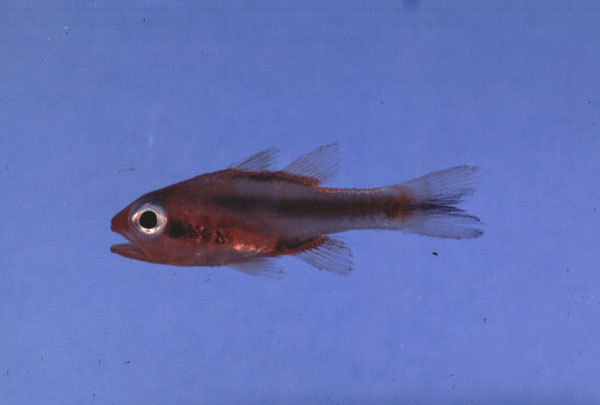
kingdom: Animalia
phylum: Chordata
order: Perciformes
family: Apogonidae
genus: Apogon
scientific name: Apogon semiornatus
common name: Threeband cardinalfish
